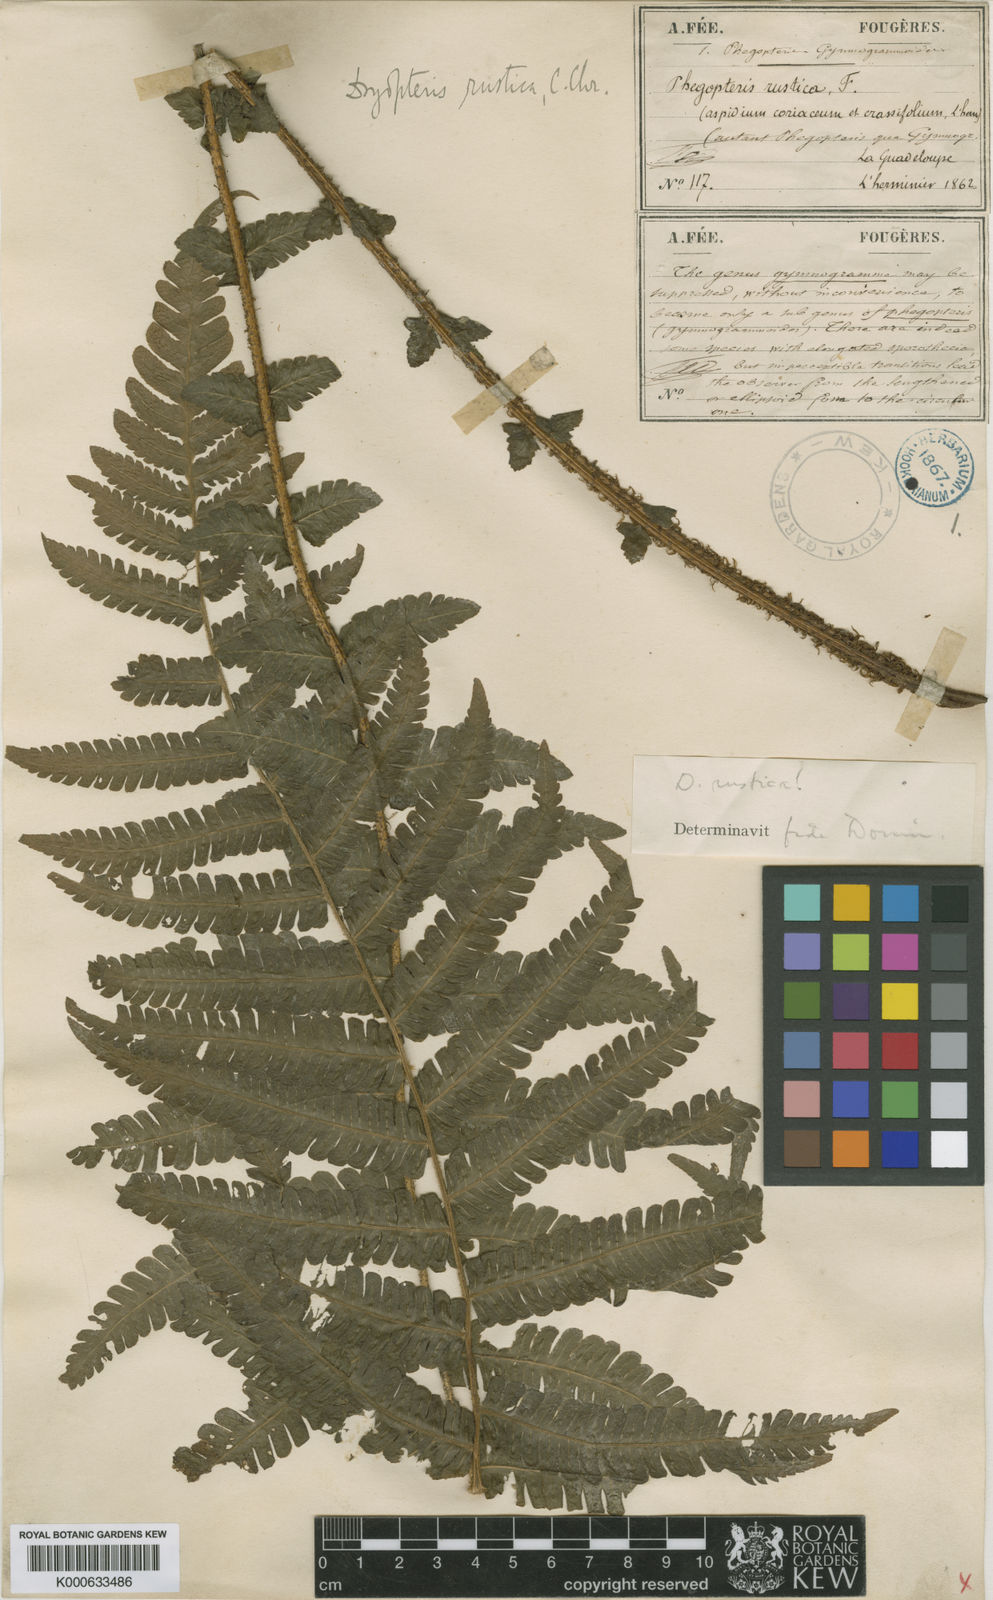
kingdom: Plantae
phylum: Tracheophyta
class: Polypodiopsida
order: Polypodiales
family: Thelypteridaceae
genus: Amauropelta
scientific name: Amauropelta rustica
